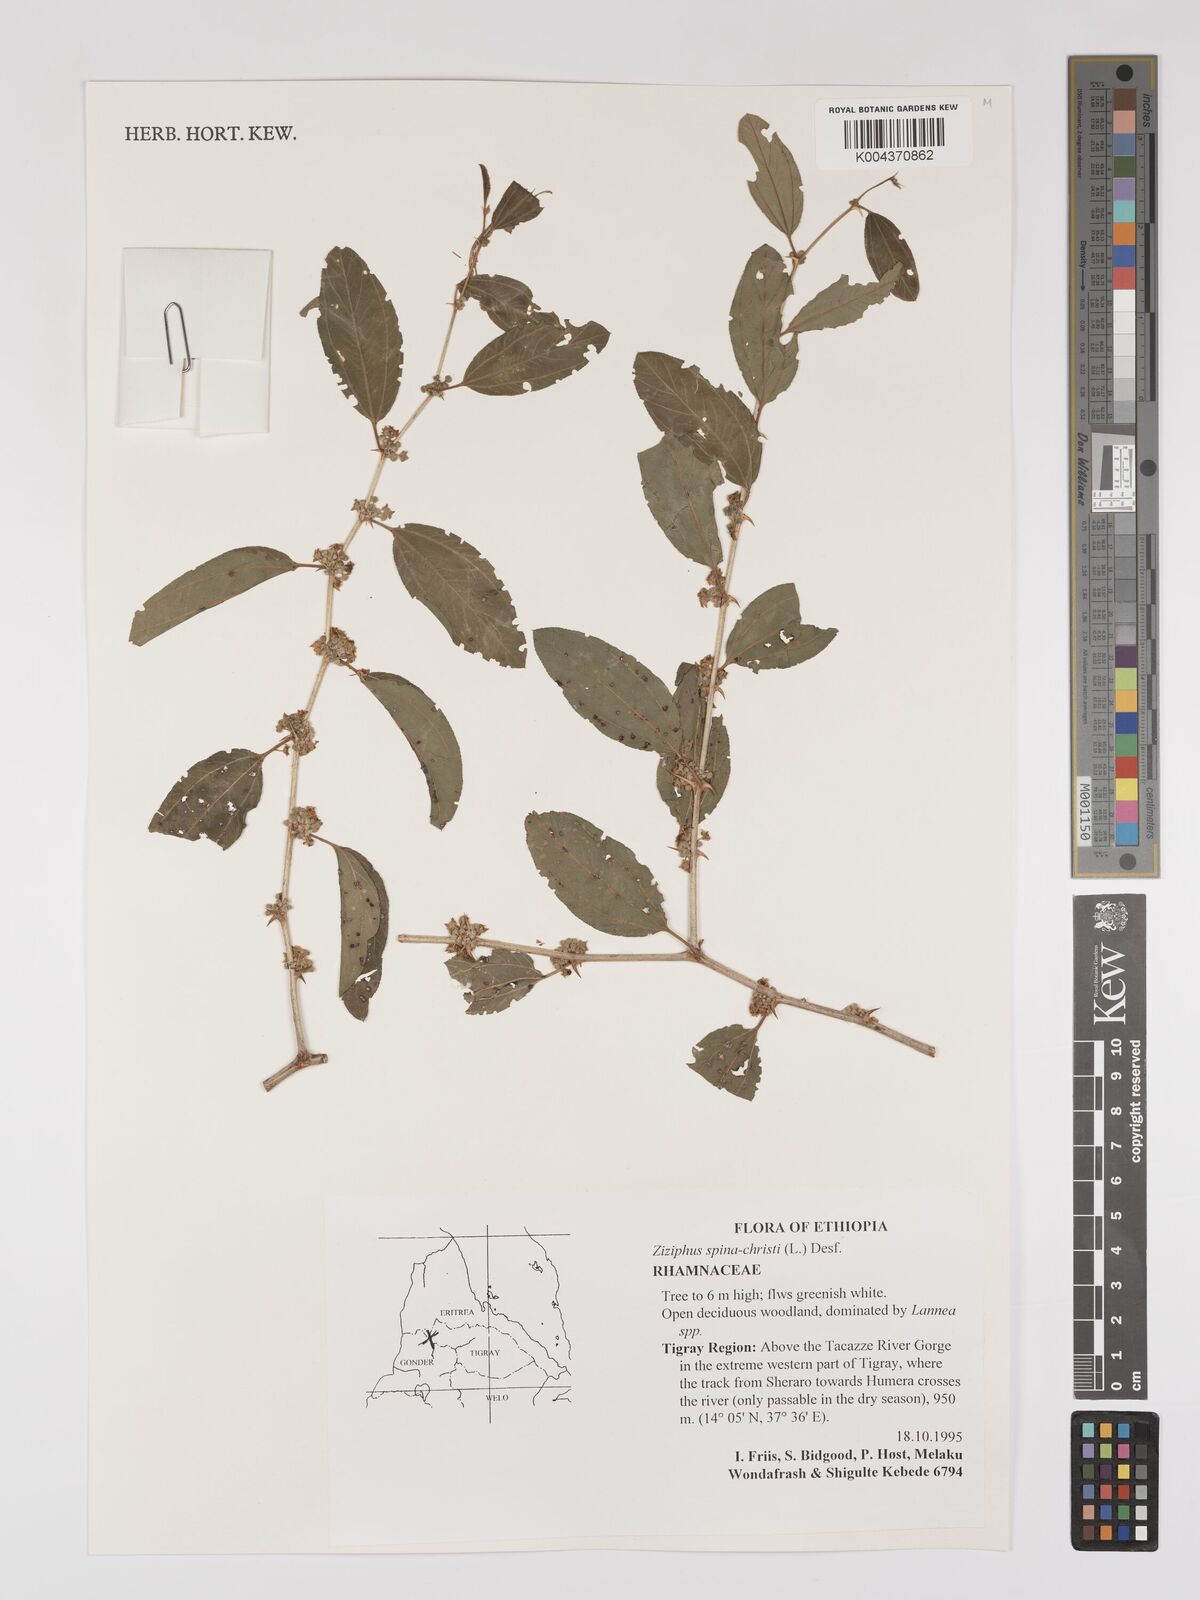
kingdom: Plantae
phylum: Tracheophyta
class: Magnoliopsida
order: Rosales
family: Rhamnaceae
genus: Ziziphus
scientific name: Ziziphus spina-christi
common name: Syrian christ-thorn
